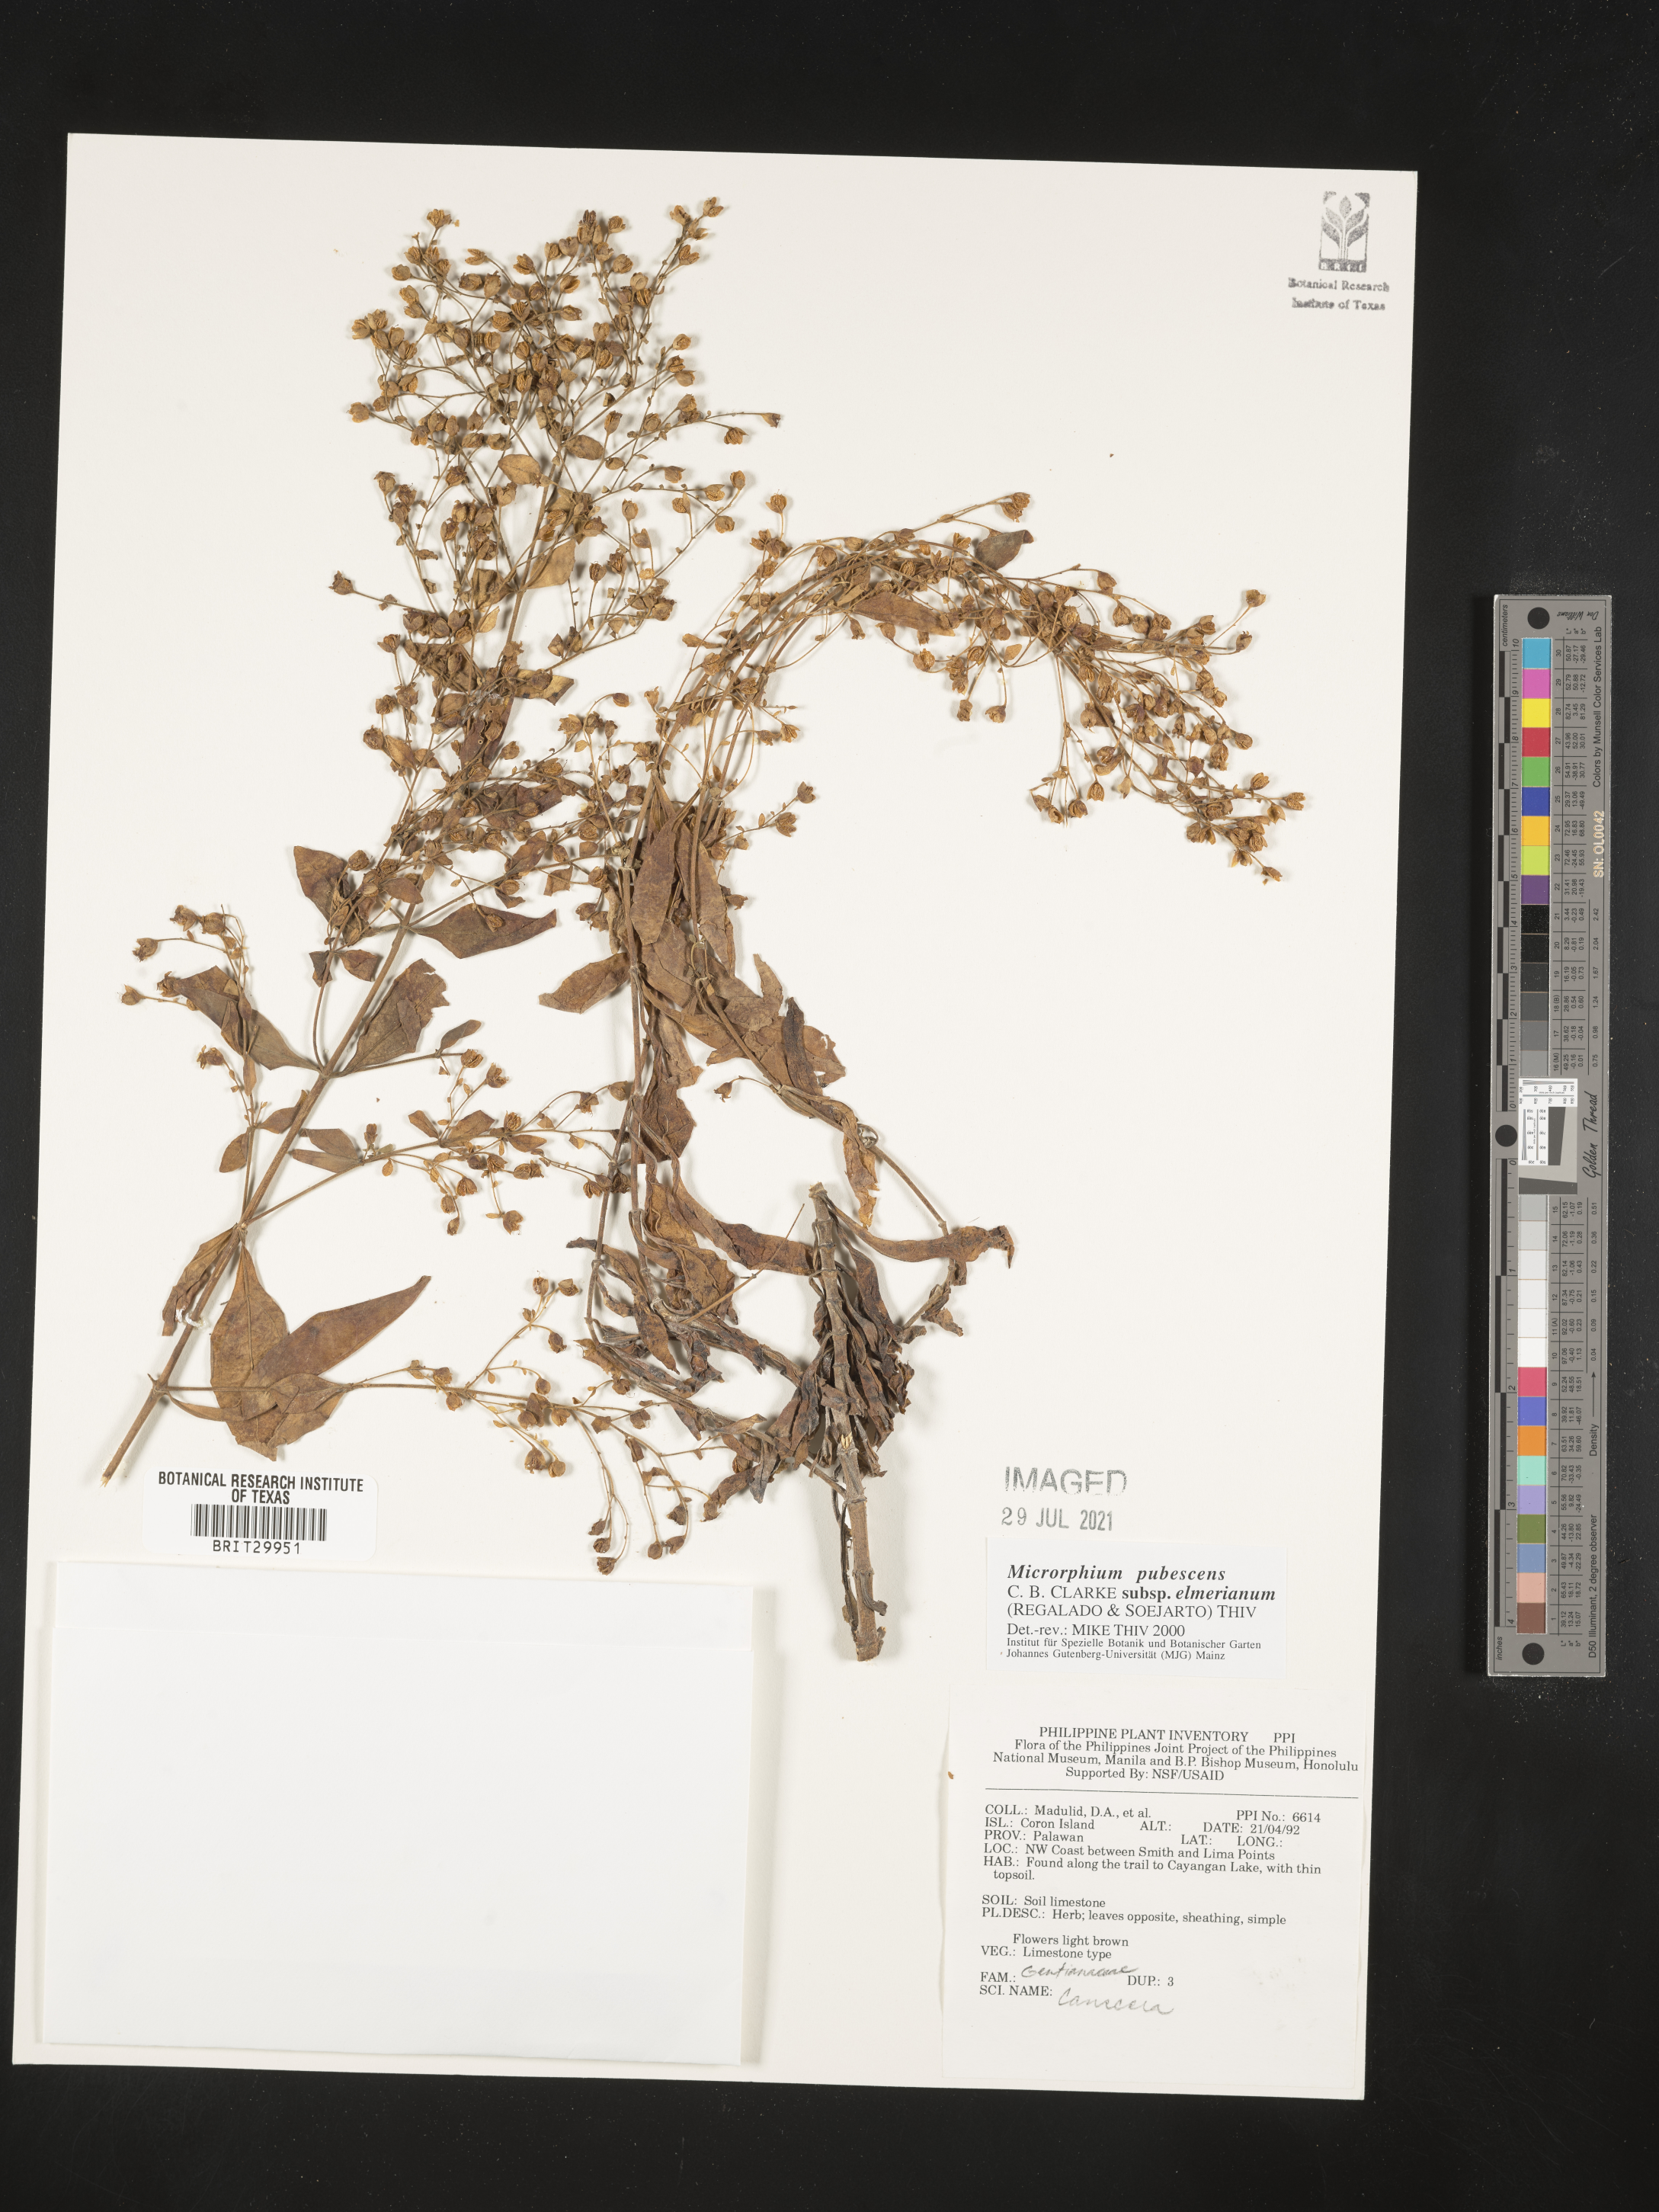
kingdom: Plantae
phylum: Tracheophyta
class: Magnoliopsida
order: Gentianales
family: Gentianaceae
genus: Microrphium
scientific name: Microrphium pubescens
